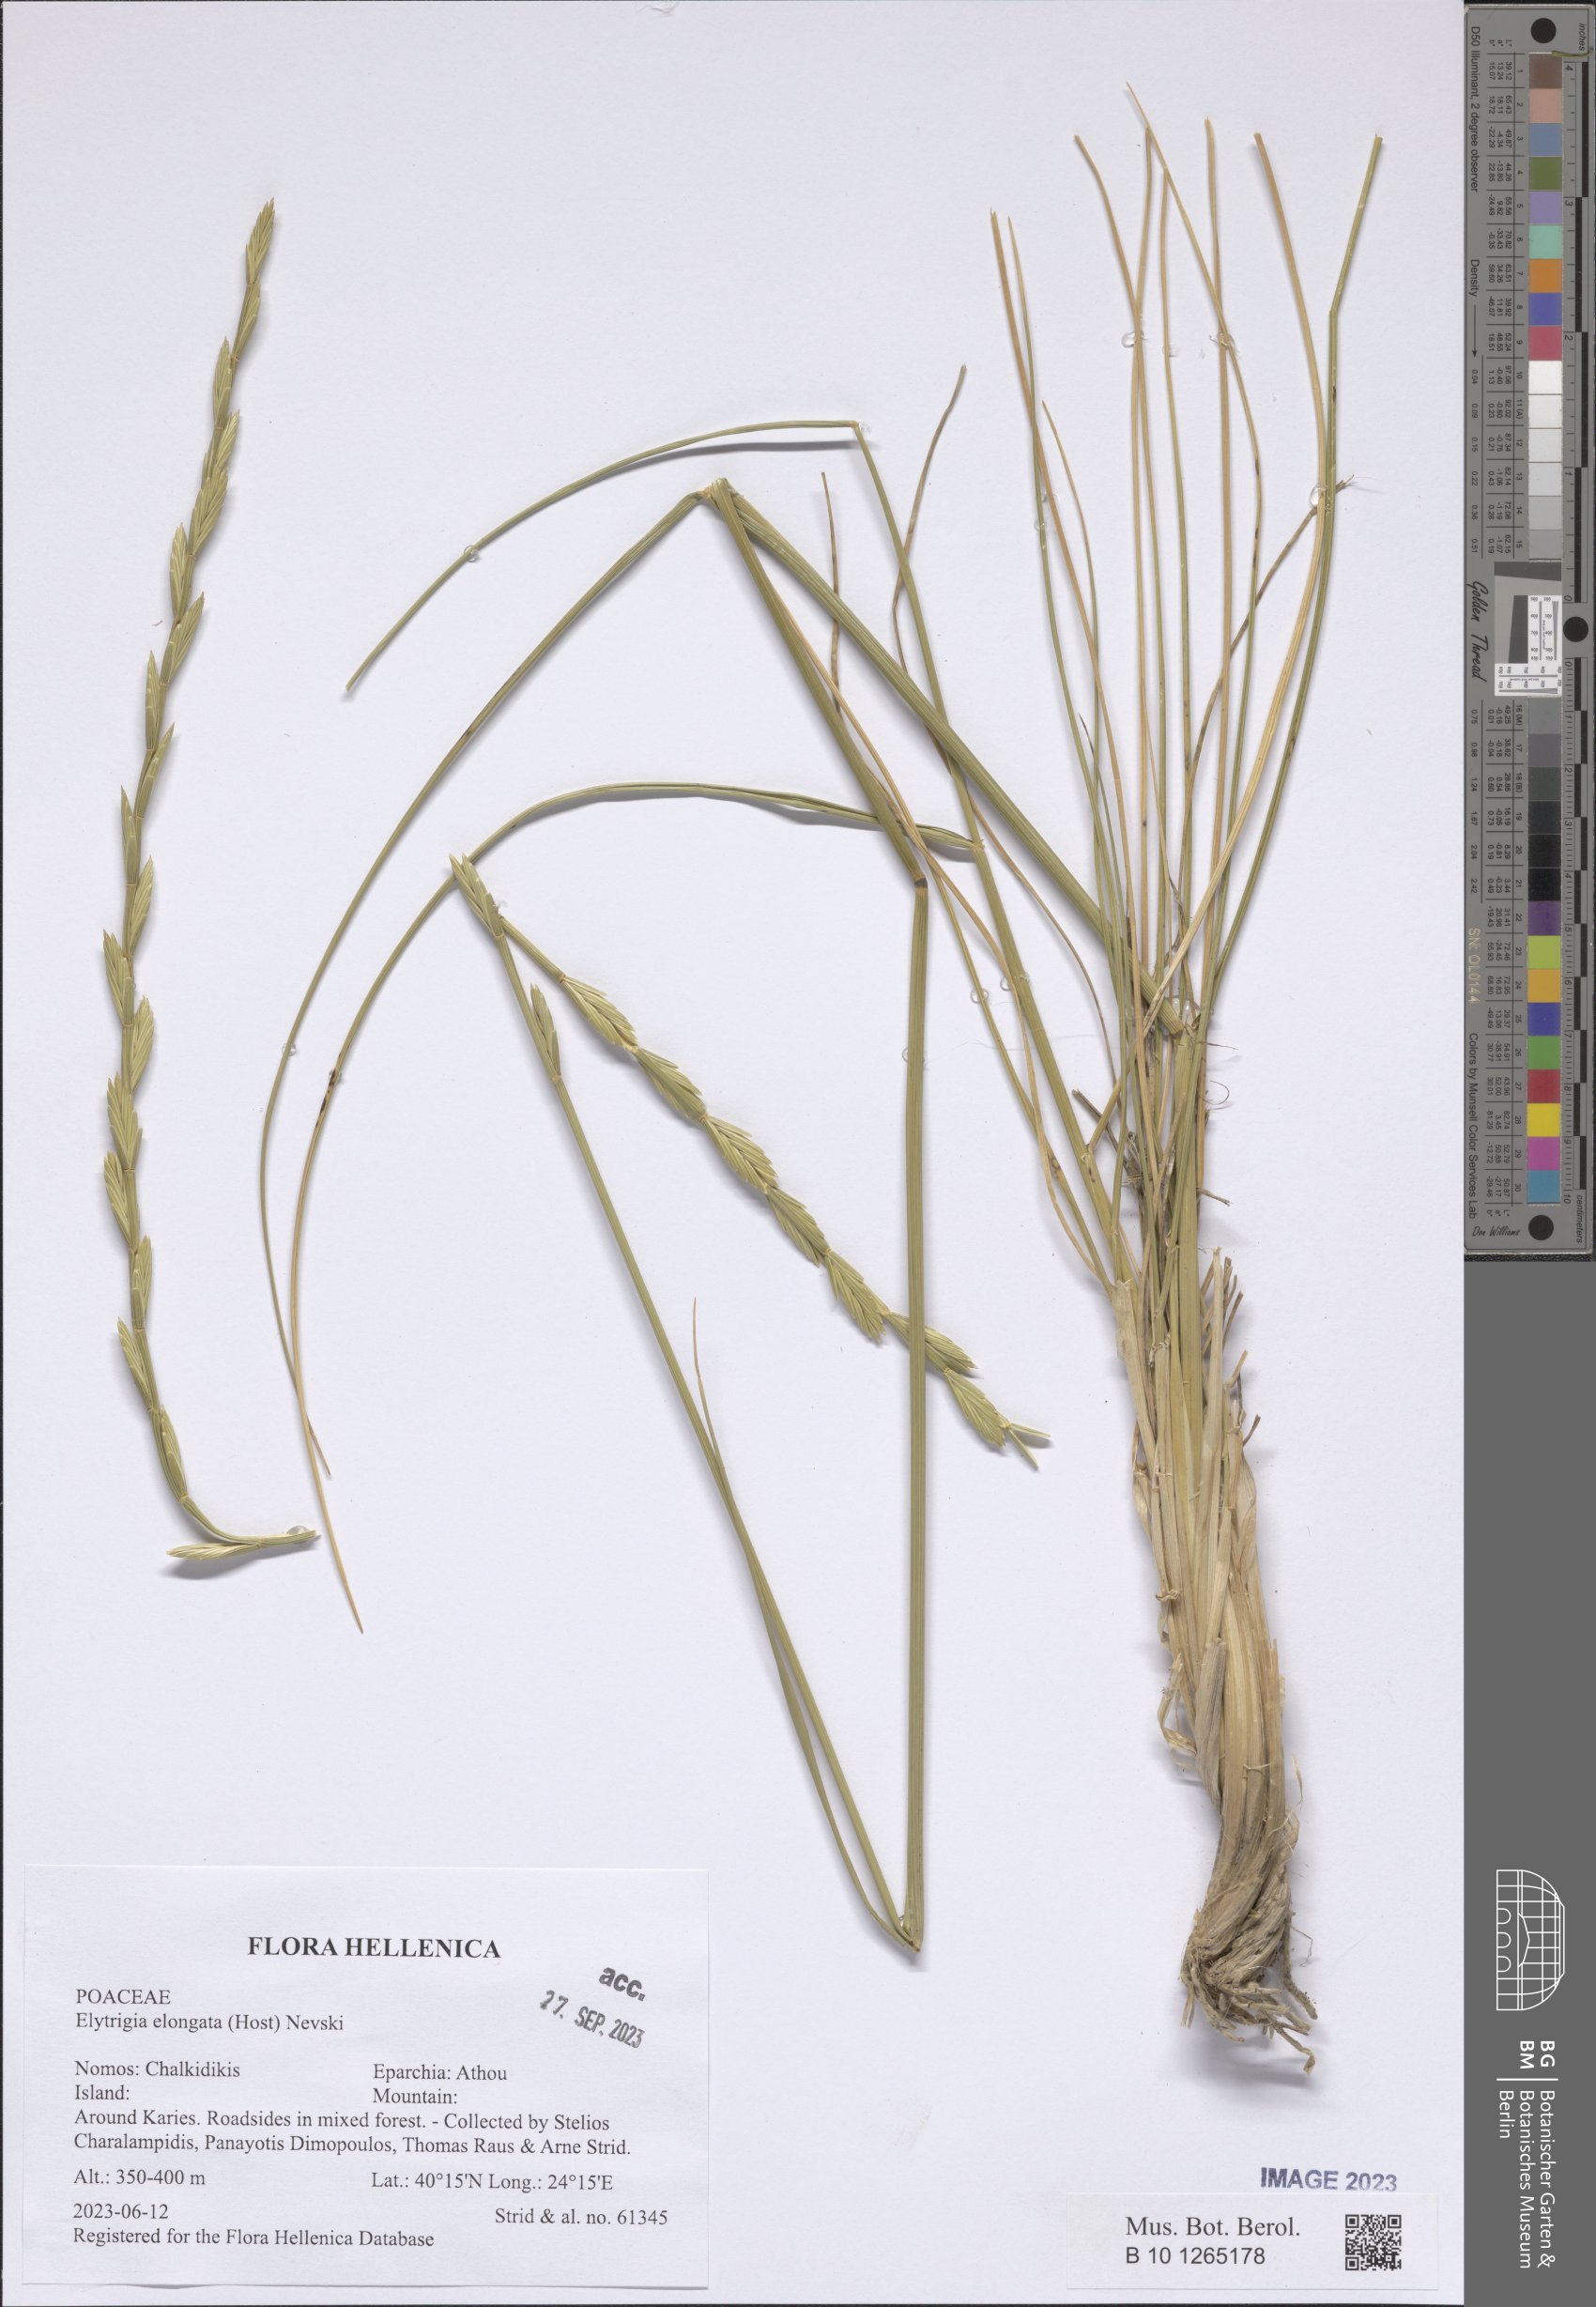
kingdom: Plantae
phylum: Tracheophyta
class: Liliopsida
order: Poales
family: Poaceae
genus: Thinopyrum
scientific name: Thinopyrum elongatum
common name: Tall wheatgrass
